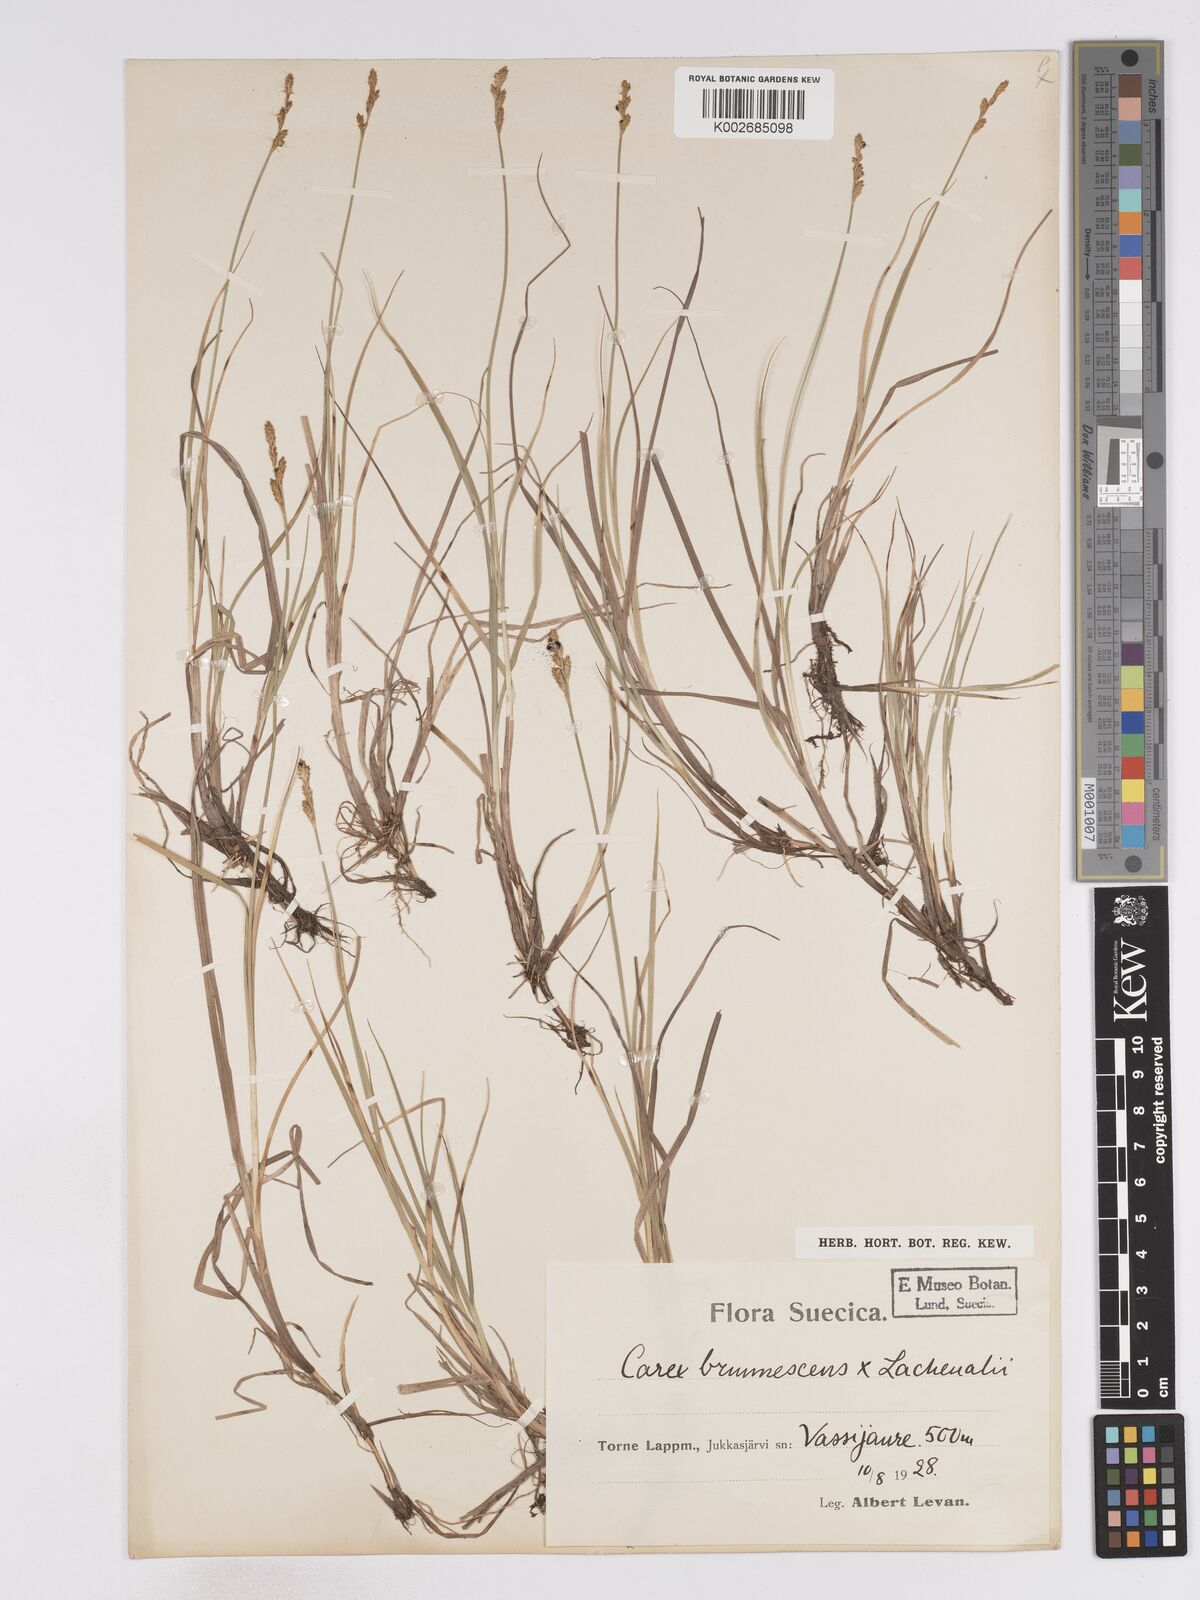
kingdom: Plantae
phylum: Tracheophyta
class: Liliopsida
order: Poales
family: Cyperaceae
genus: Carex
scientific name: Carex brunnescens
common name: Brown sedge
